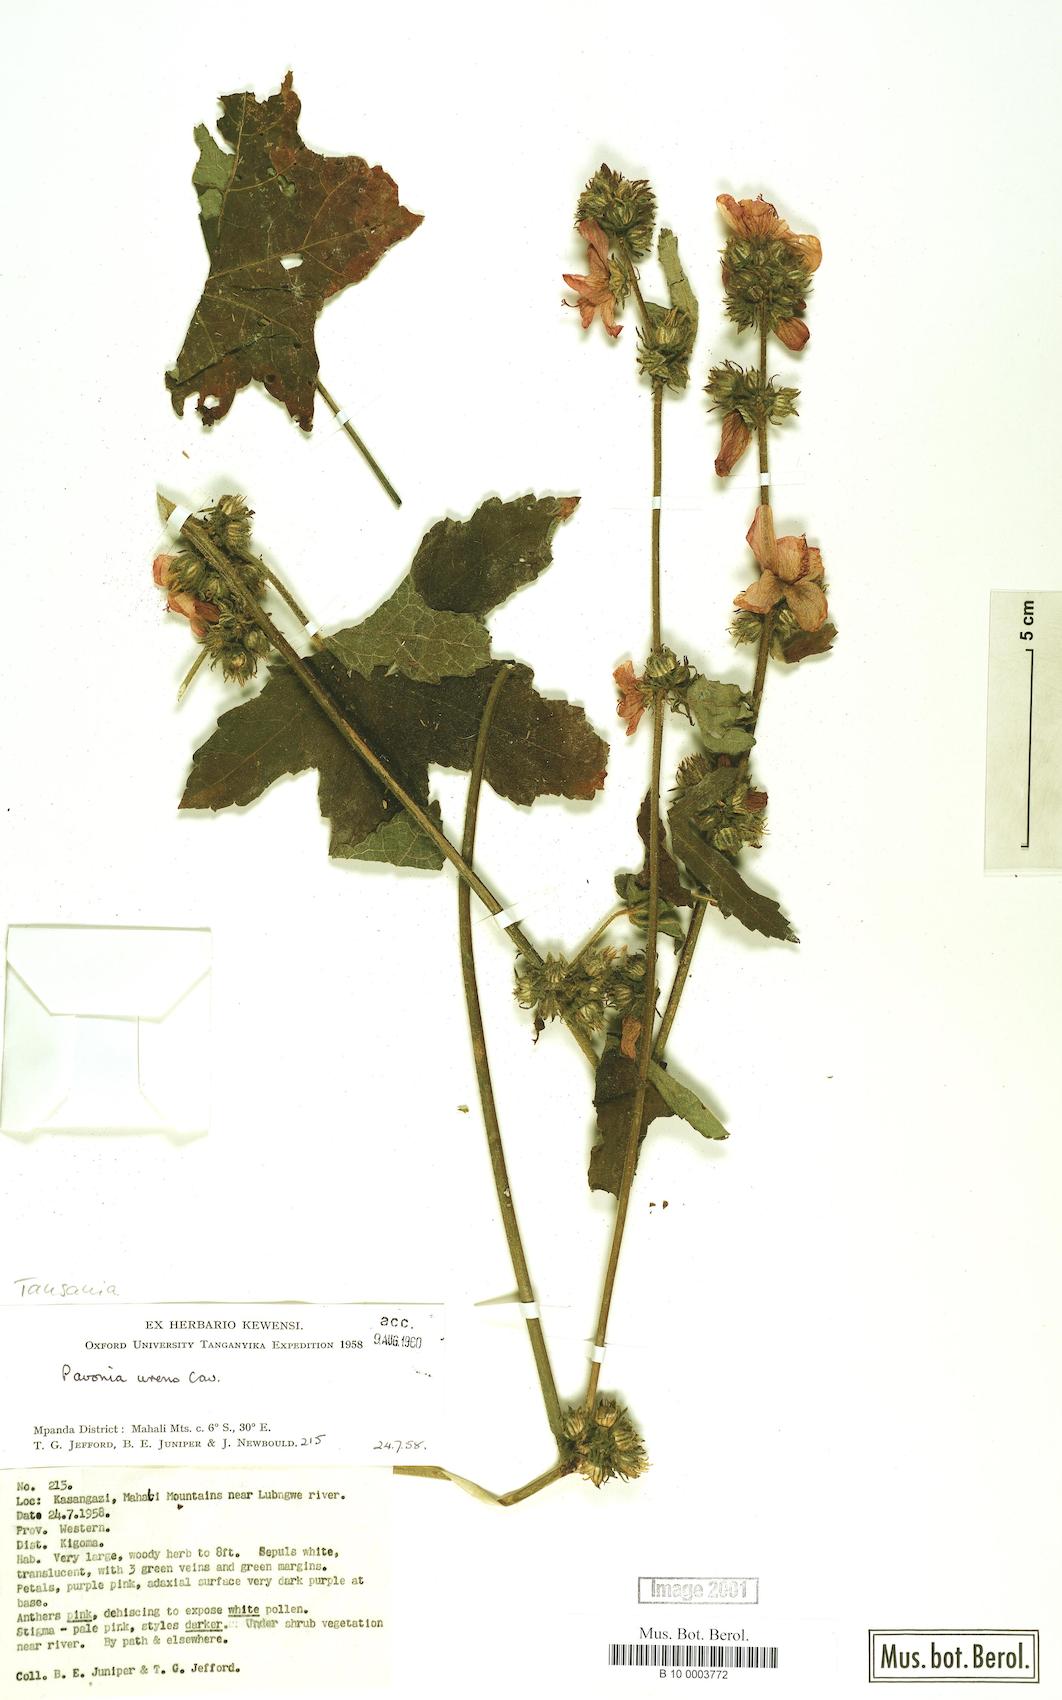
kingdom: Plantae
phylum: Tracheophyta
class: Magnoliopsida
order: Malvales
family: Malvaceae
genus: Pavonia
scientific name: Pavonia urens
